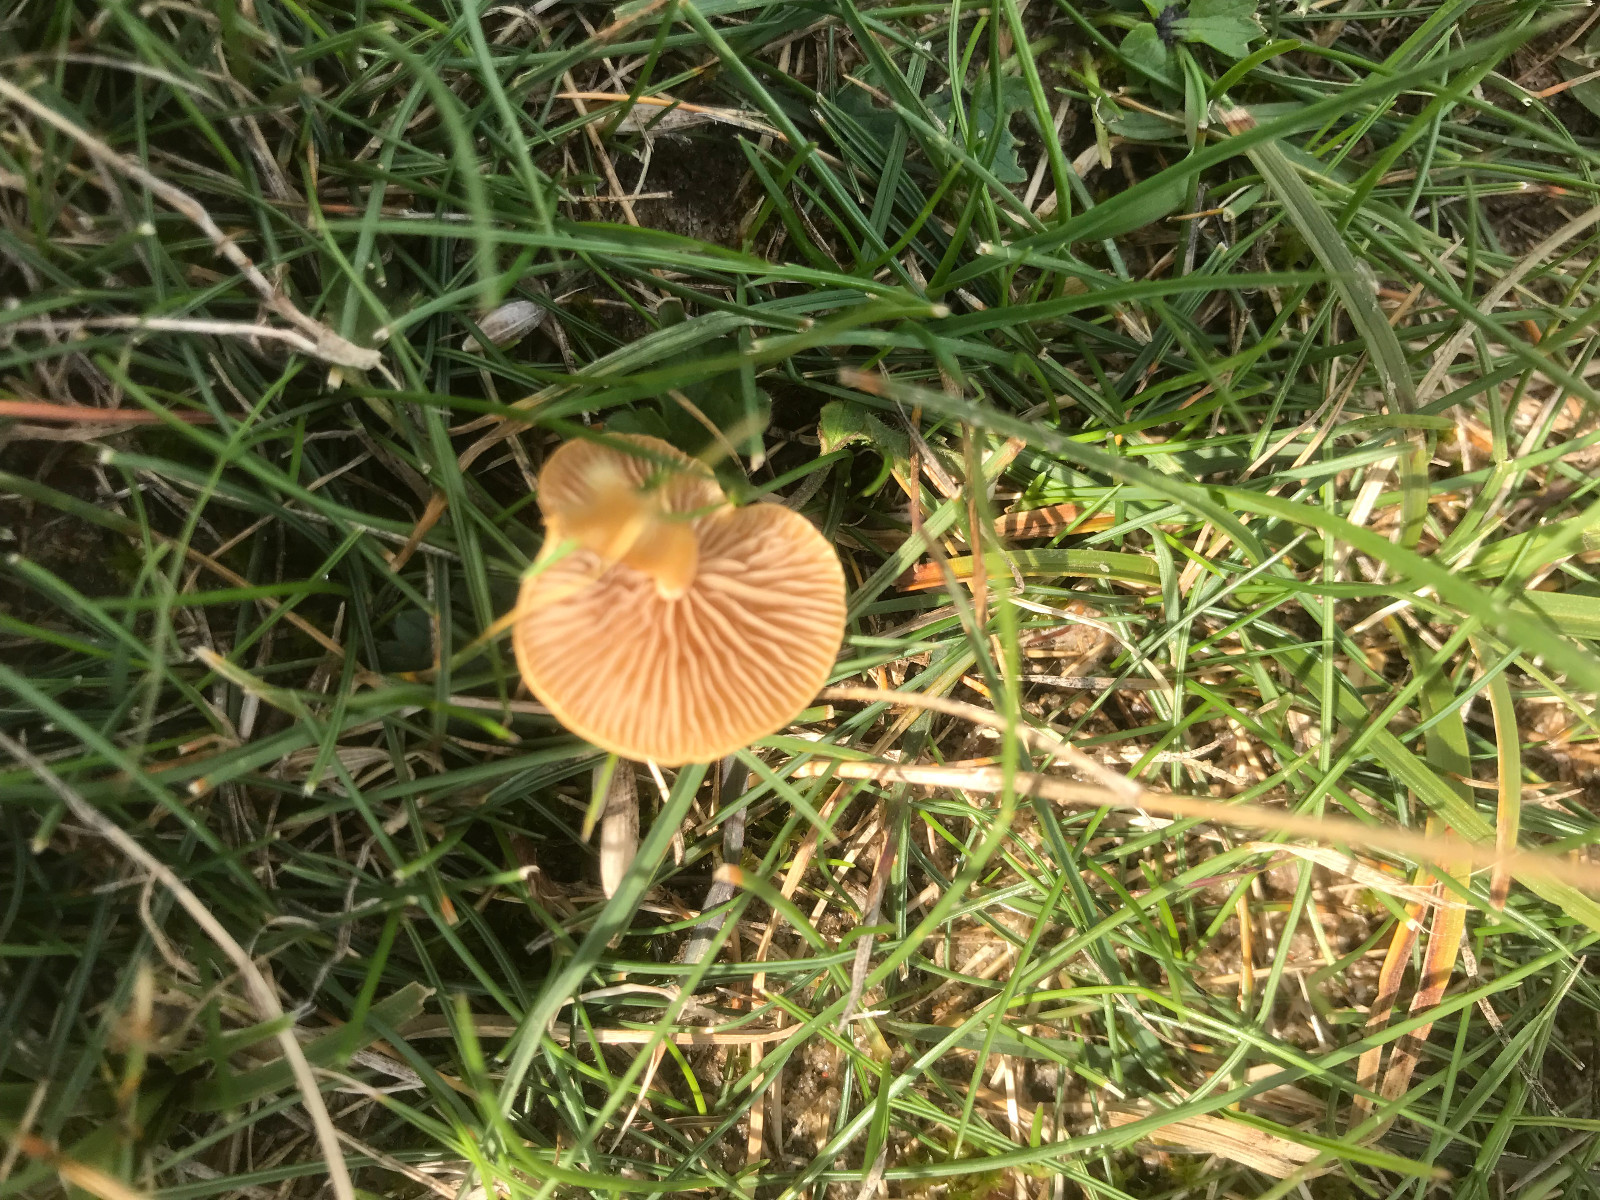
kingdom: Fungi
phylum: Basidiomycota
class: Agaricomycetes
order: Agaricales
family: Strophariaceae
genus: Agrocybe
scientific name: Agrocybe
